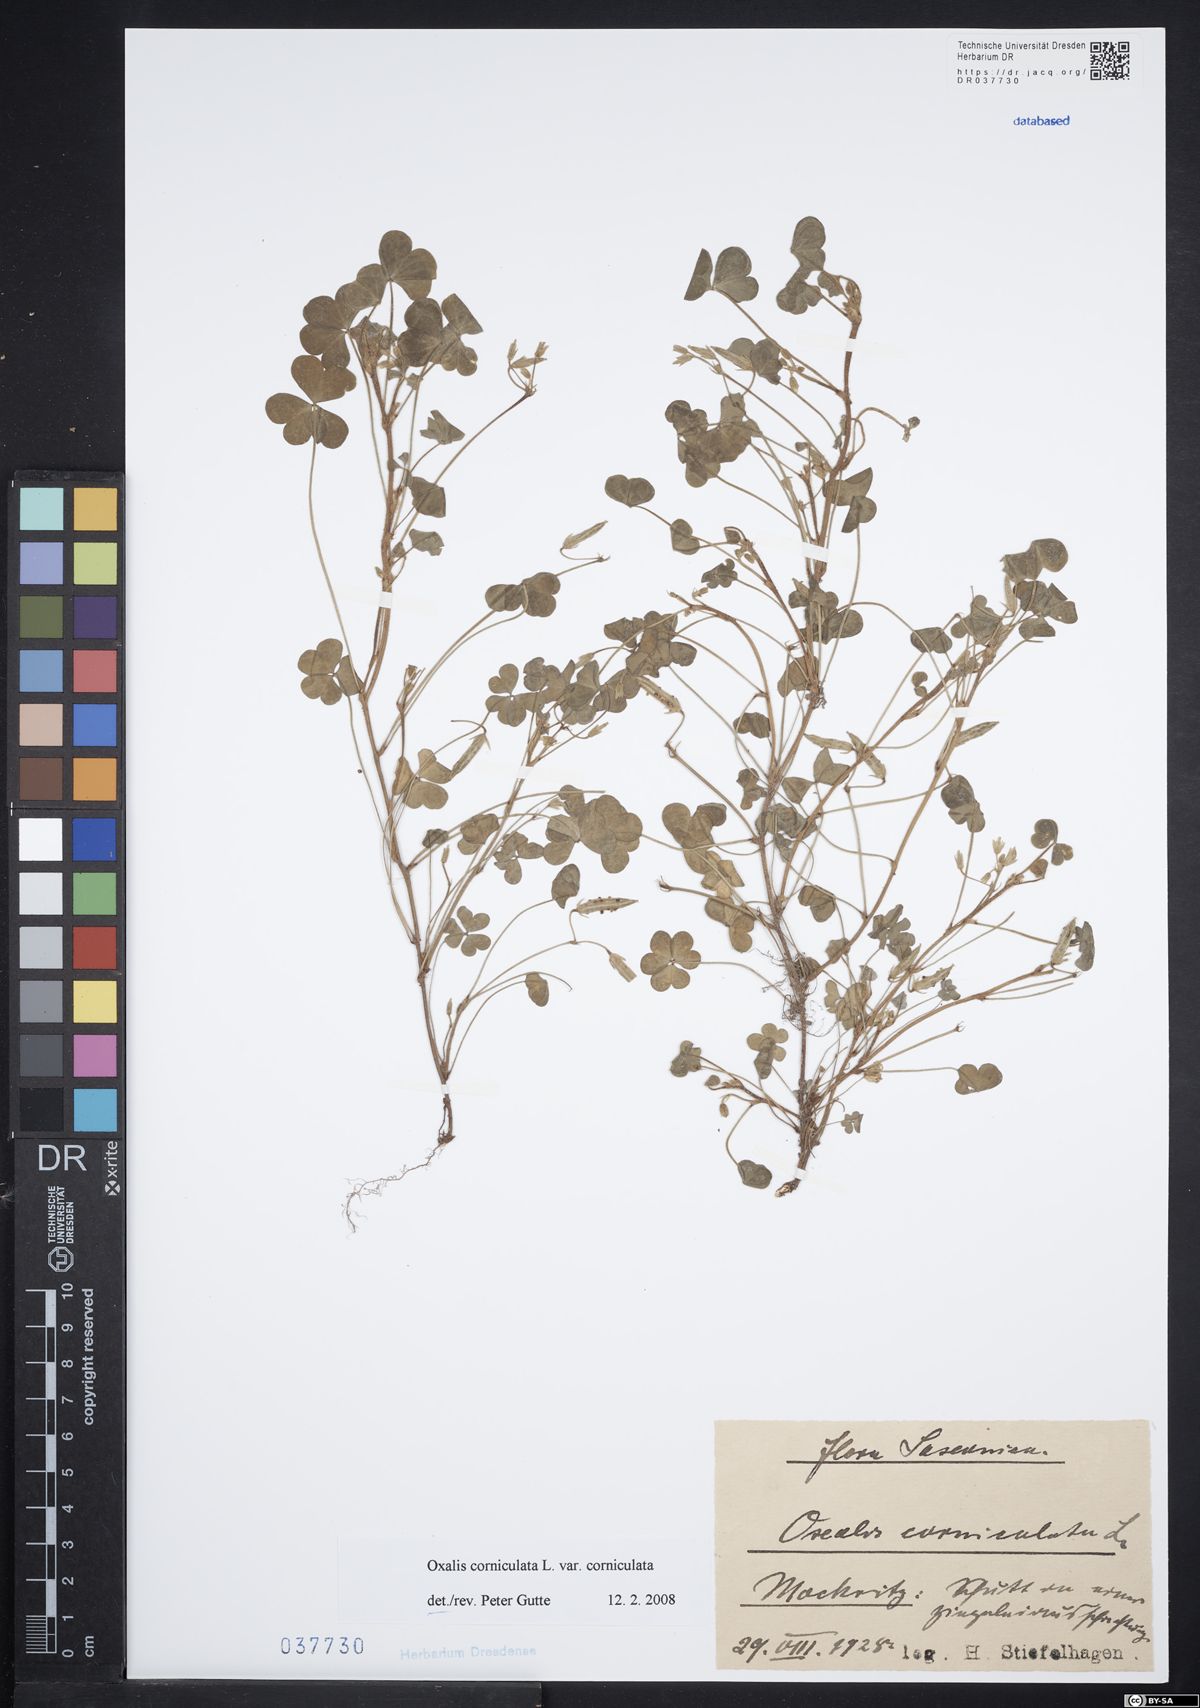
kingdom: Plantae
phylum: Tracheophyta
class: Magnoliopsida
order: Oxalidales
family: Oxalidaceae
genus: Oxalis
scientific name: Oxalis corniculata
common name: Procumbent yellow-sorrel
